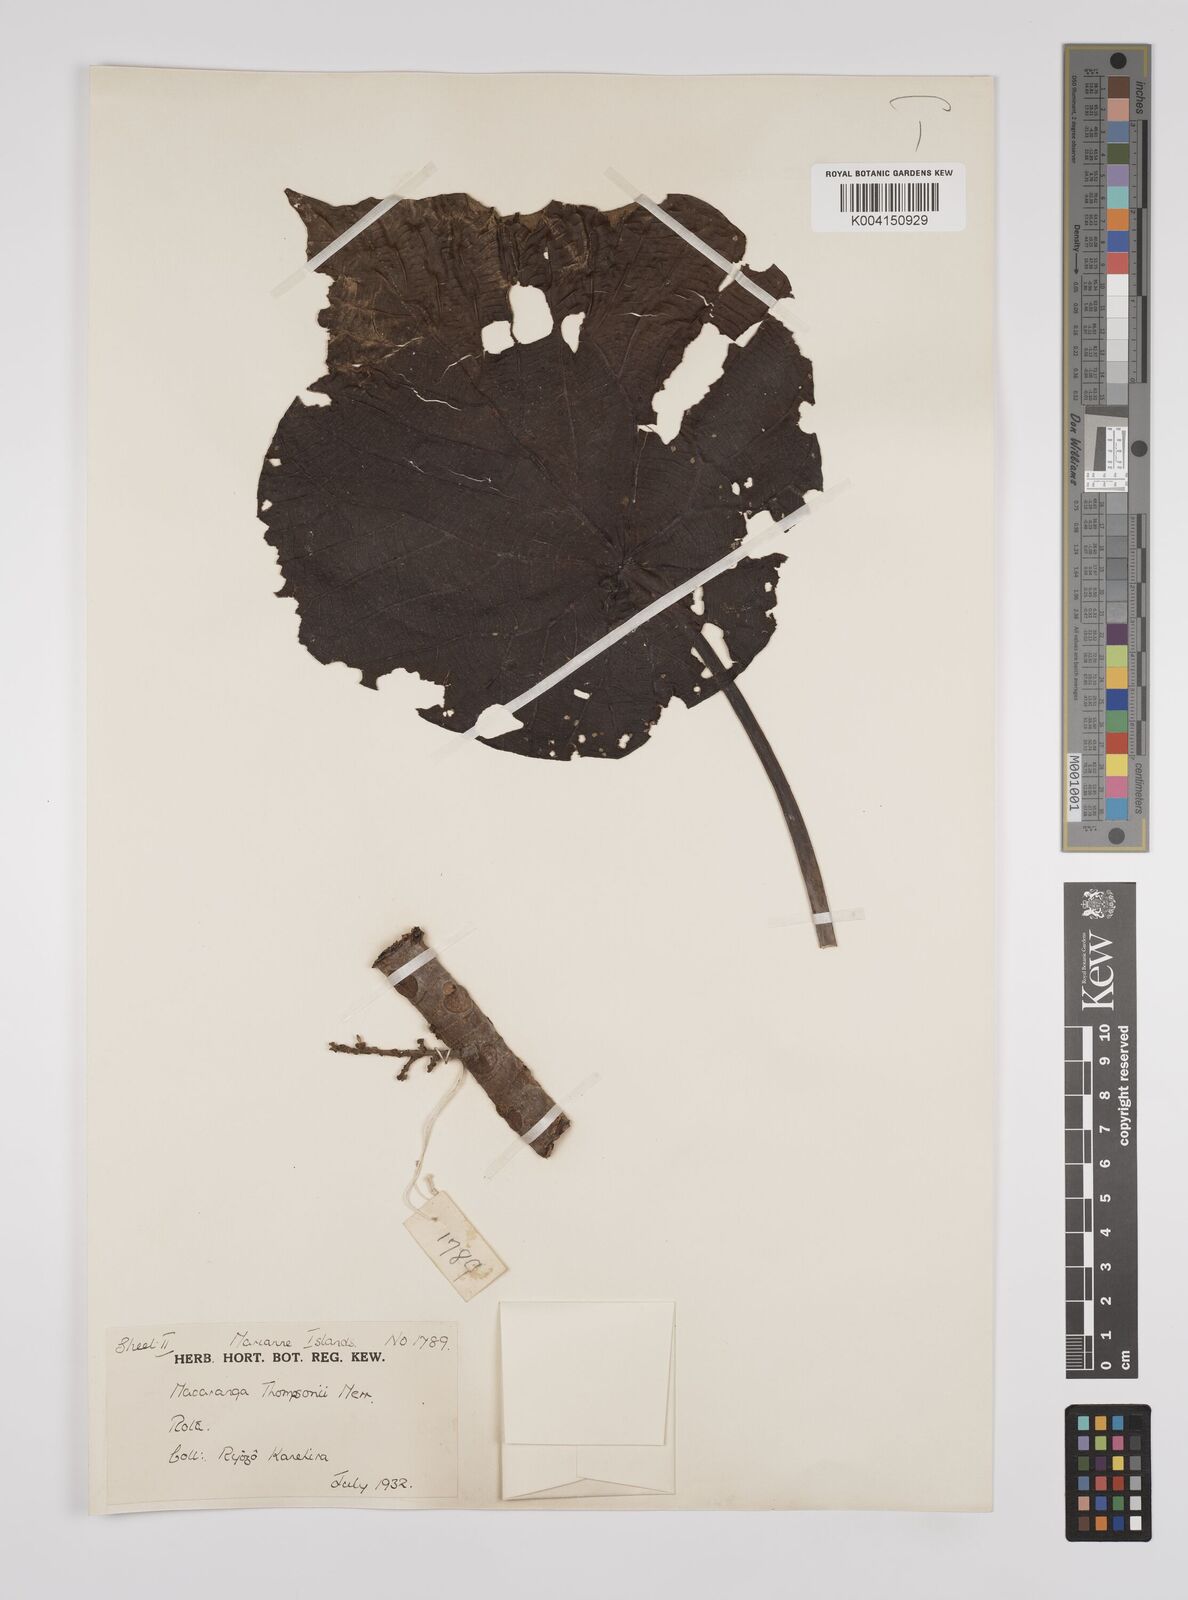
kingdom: Plantae
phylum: Tracheophyta
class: Magnoliopsida
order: Malpighiales
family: Euphorbiaceae
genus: Macaranga
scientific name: Macaranga thompsonii
